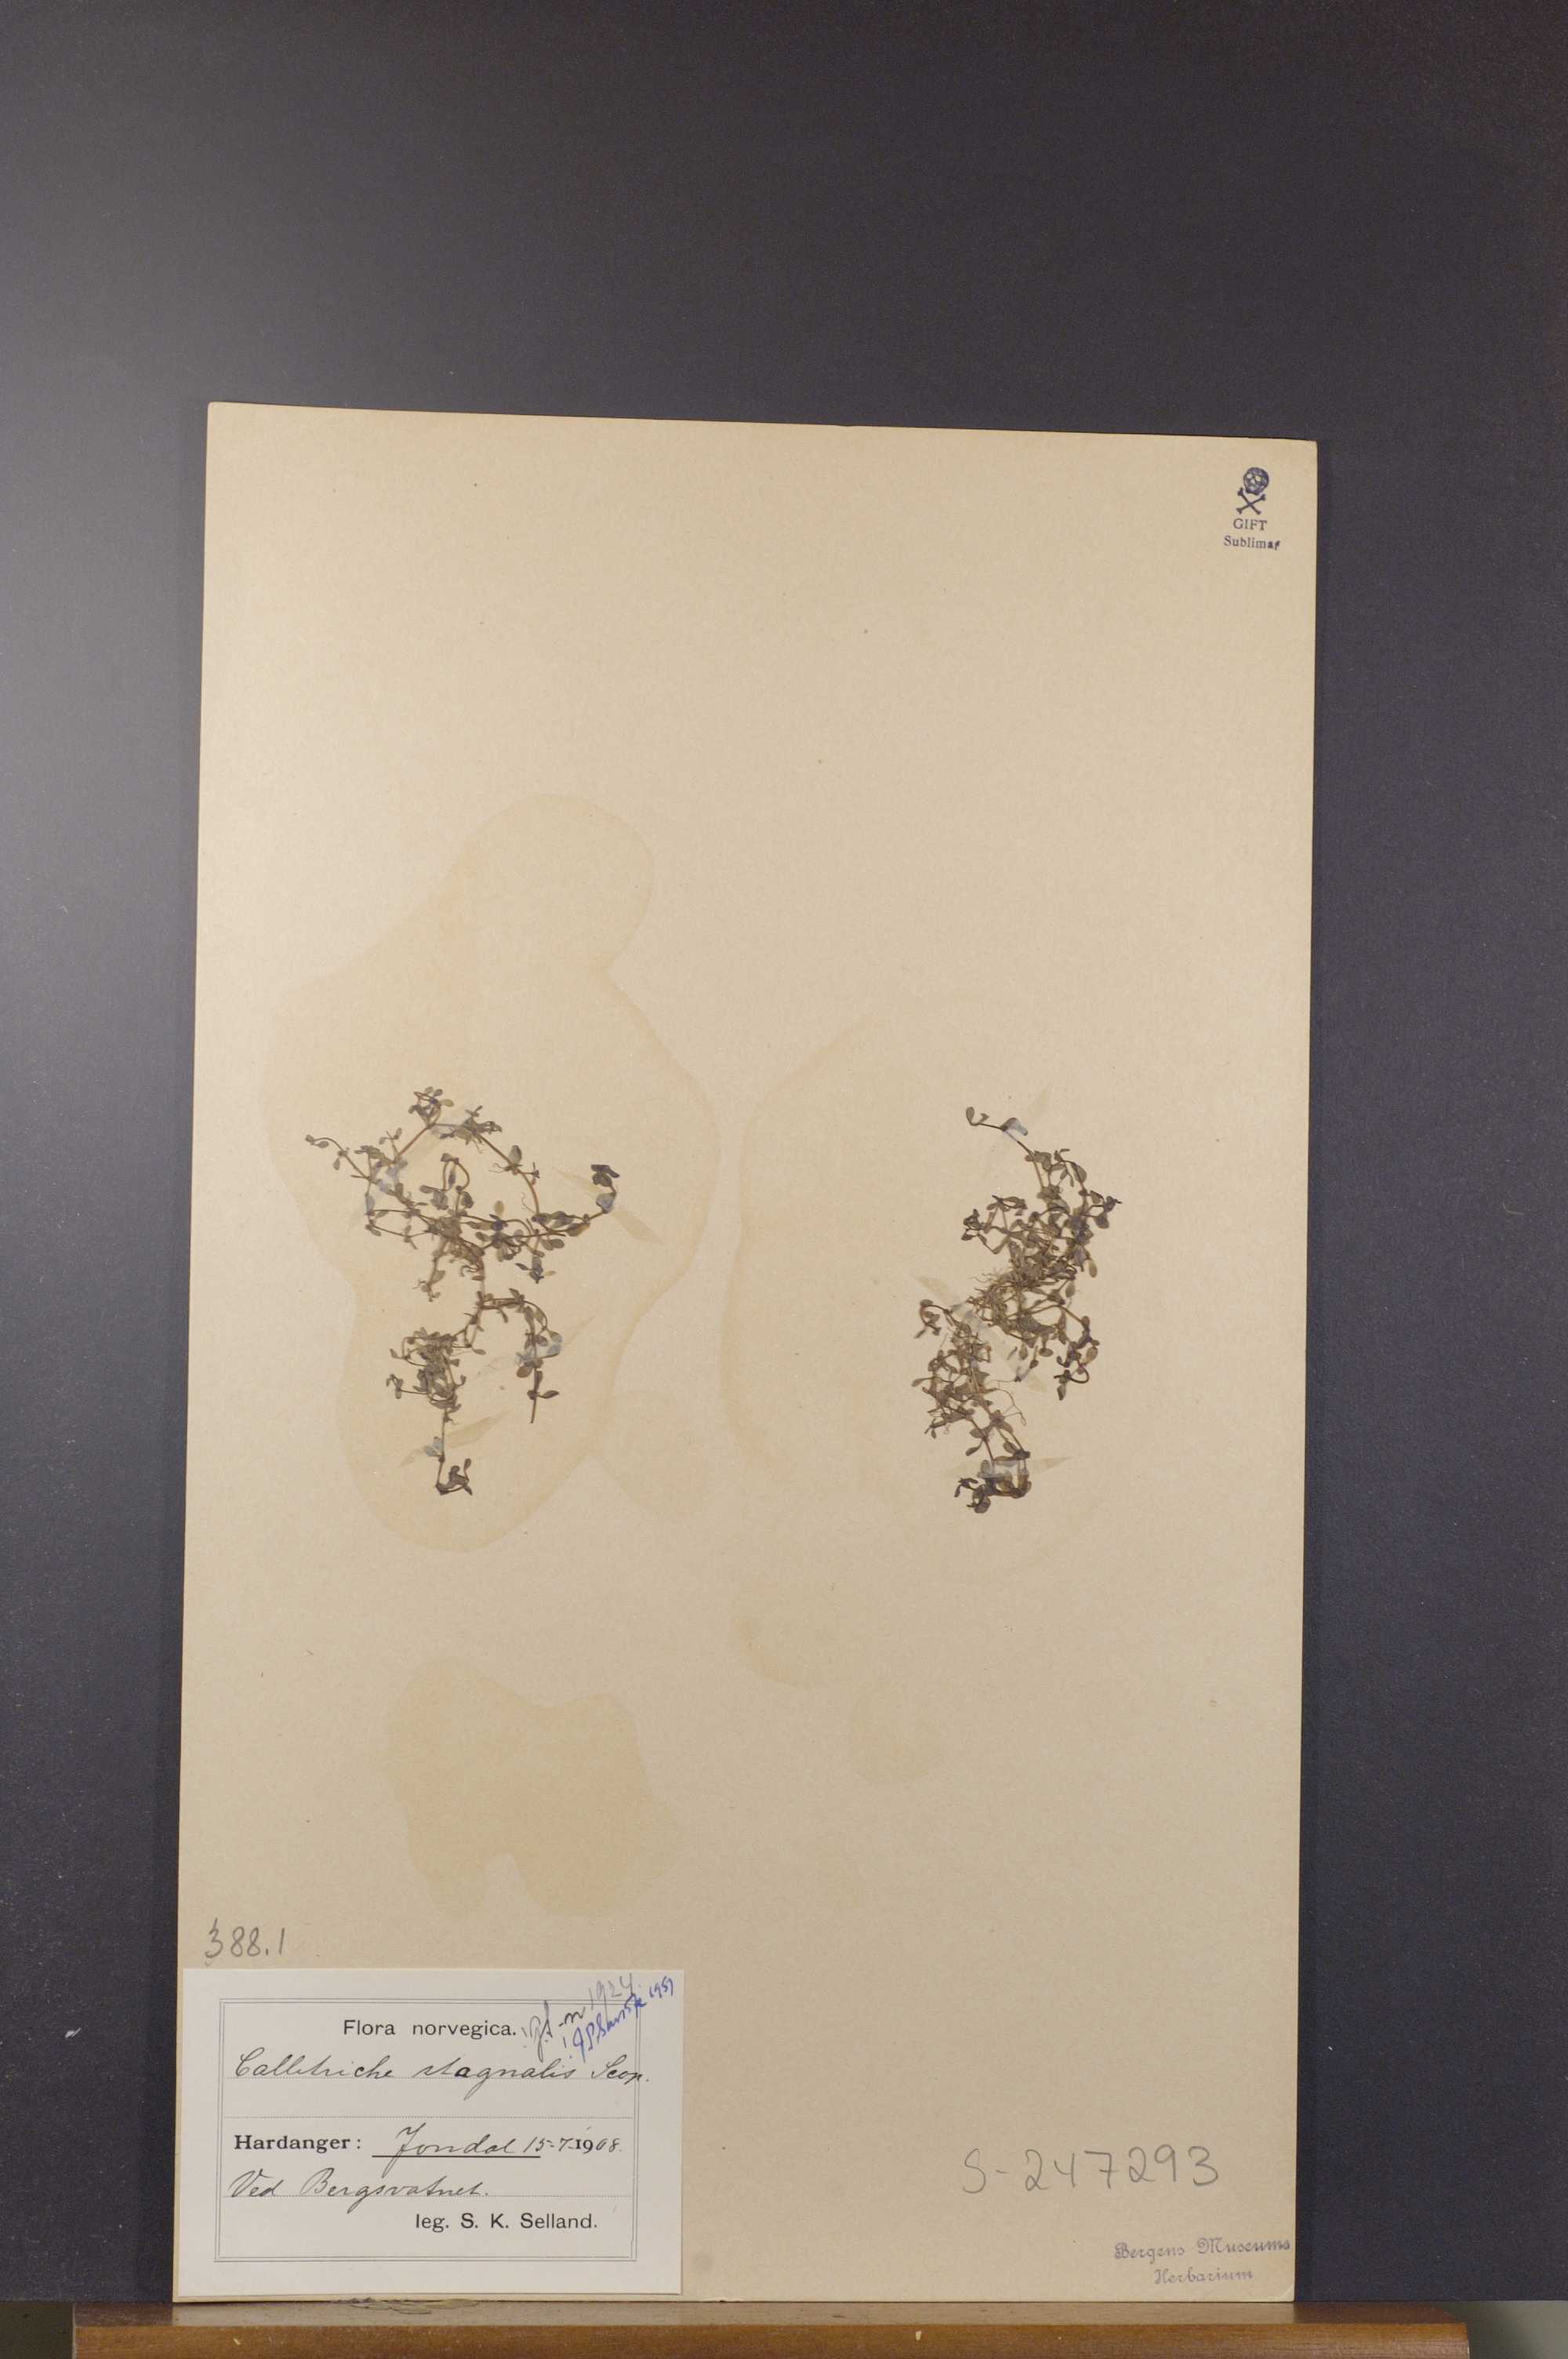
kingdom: Plantae
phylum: Tracheophyta
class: Magnoliopsida
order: Lamiales
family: Plantaginaceae
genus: Callitriche
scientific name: Callitriche stagnalis
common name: Common water-starwort
